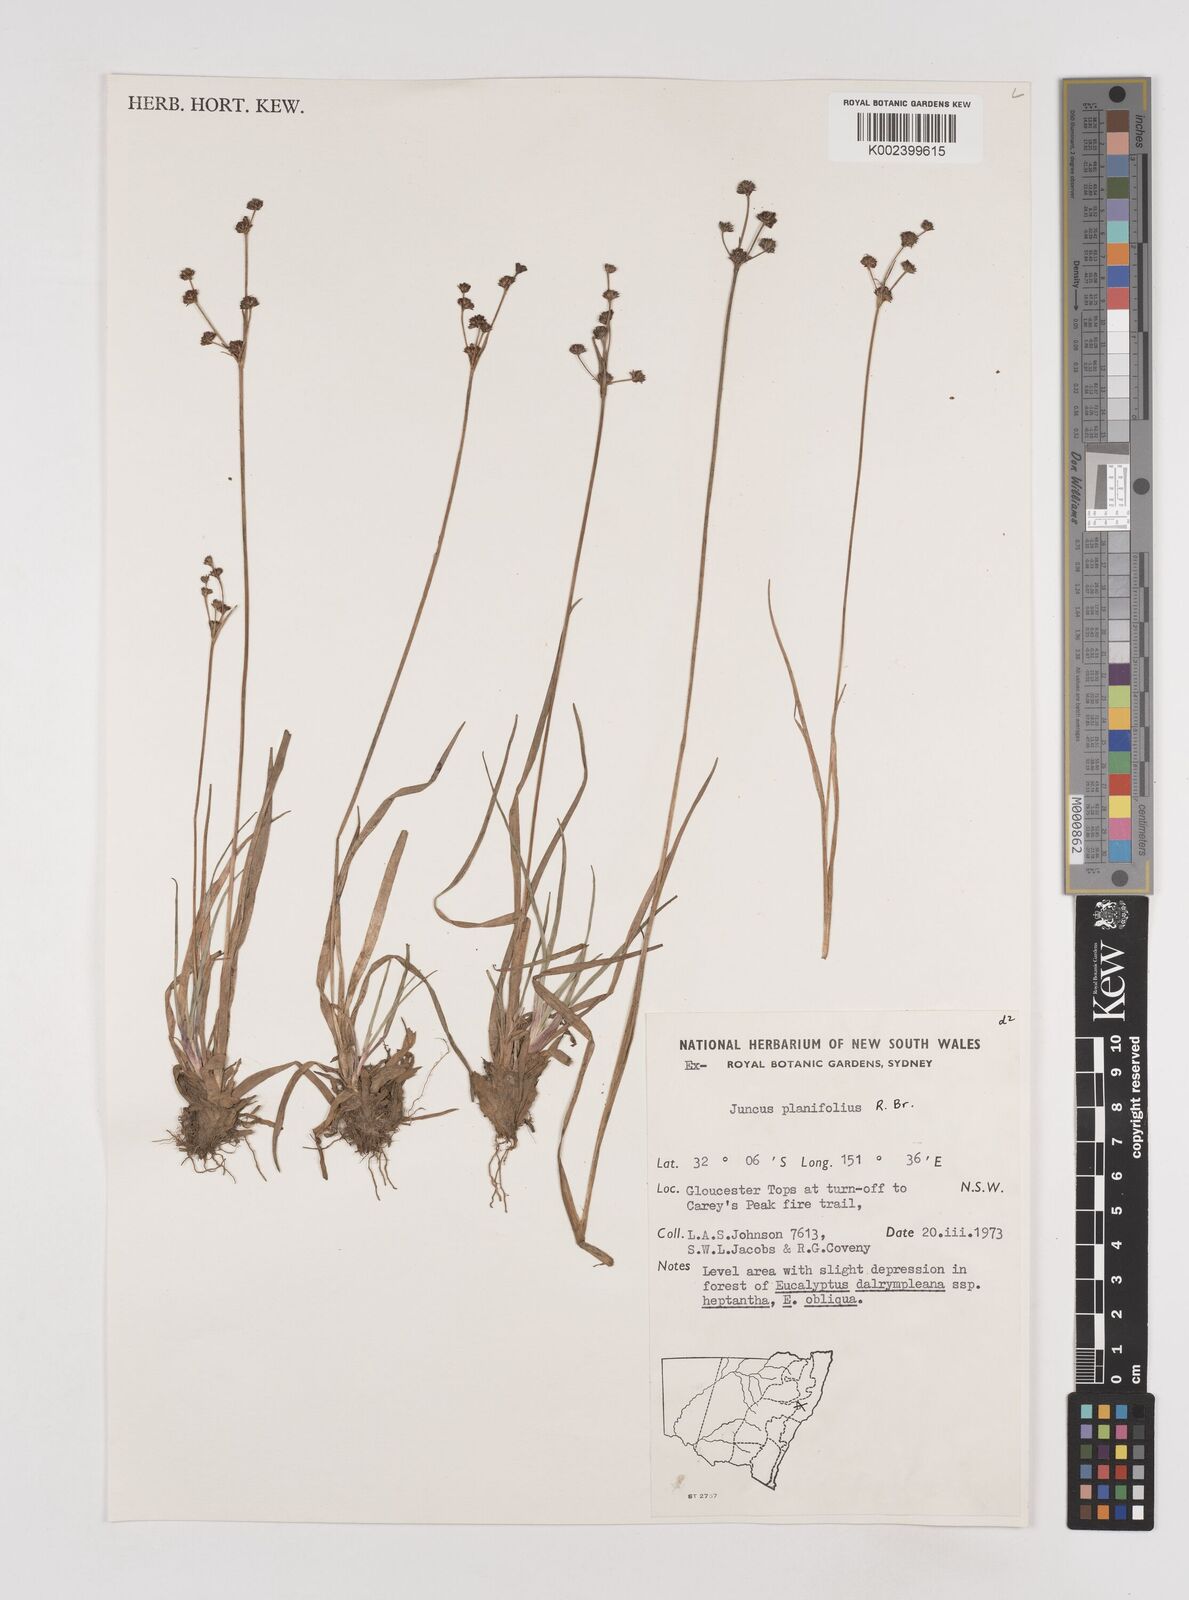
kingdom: Plantae
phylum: Tracheophyta
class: Liliopsida
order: Poales
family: Juncaceae
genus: Juncus
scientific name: Juncus planifolius
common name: Broadleaf rush
